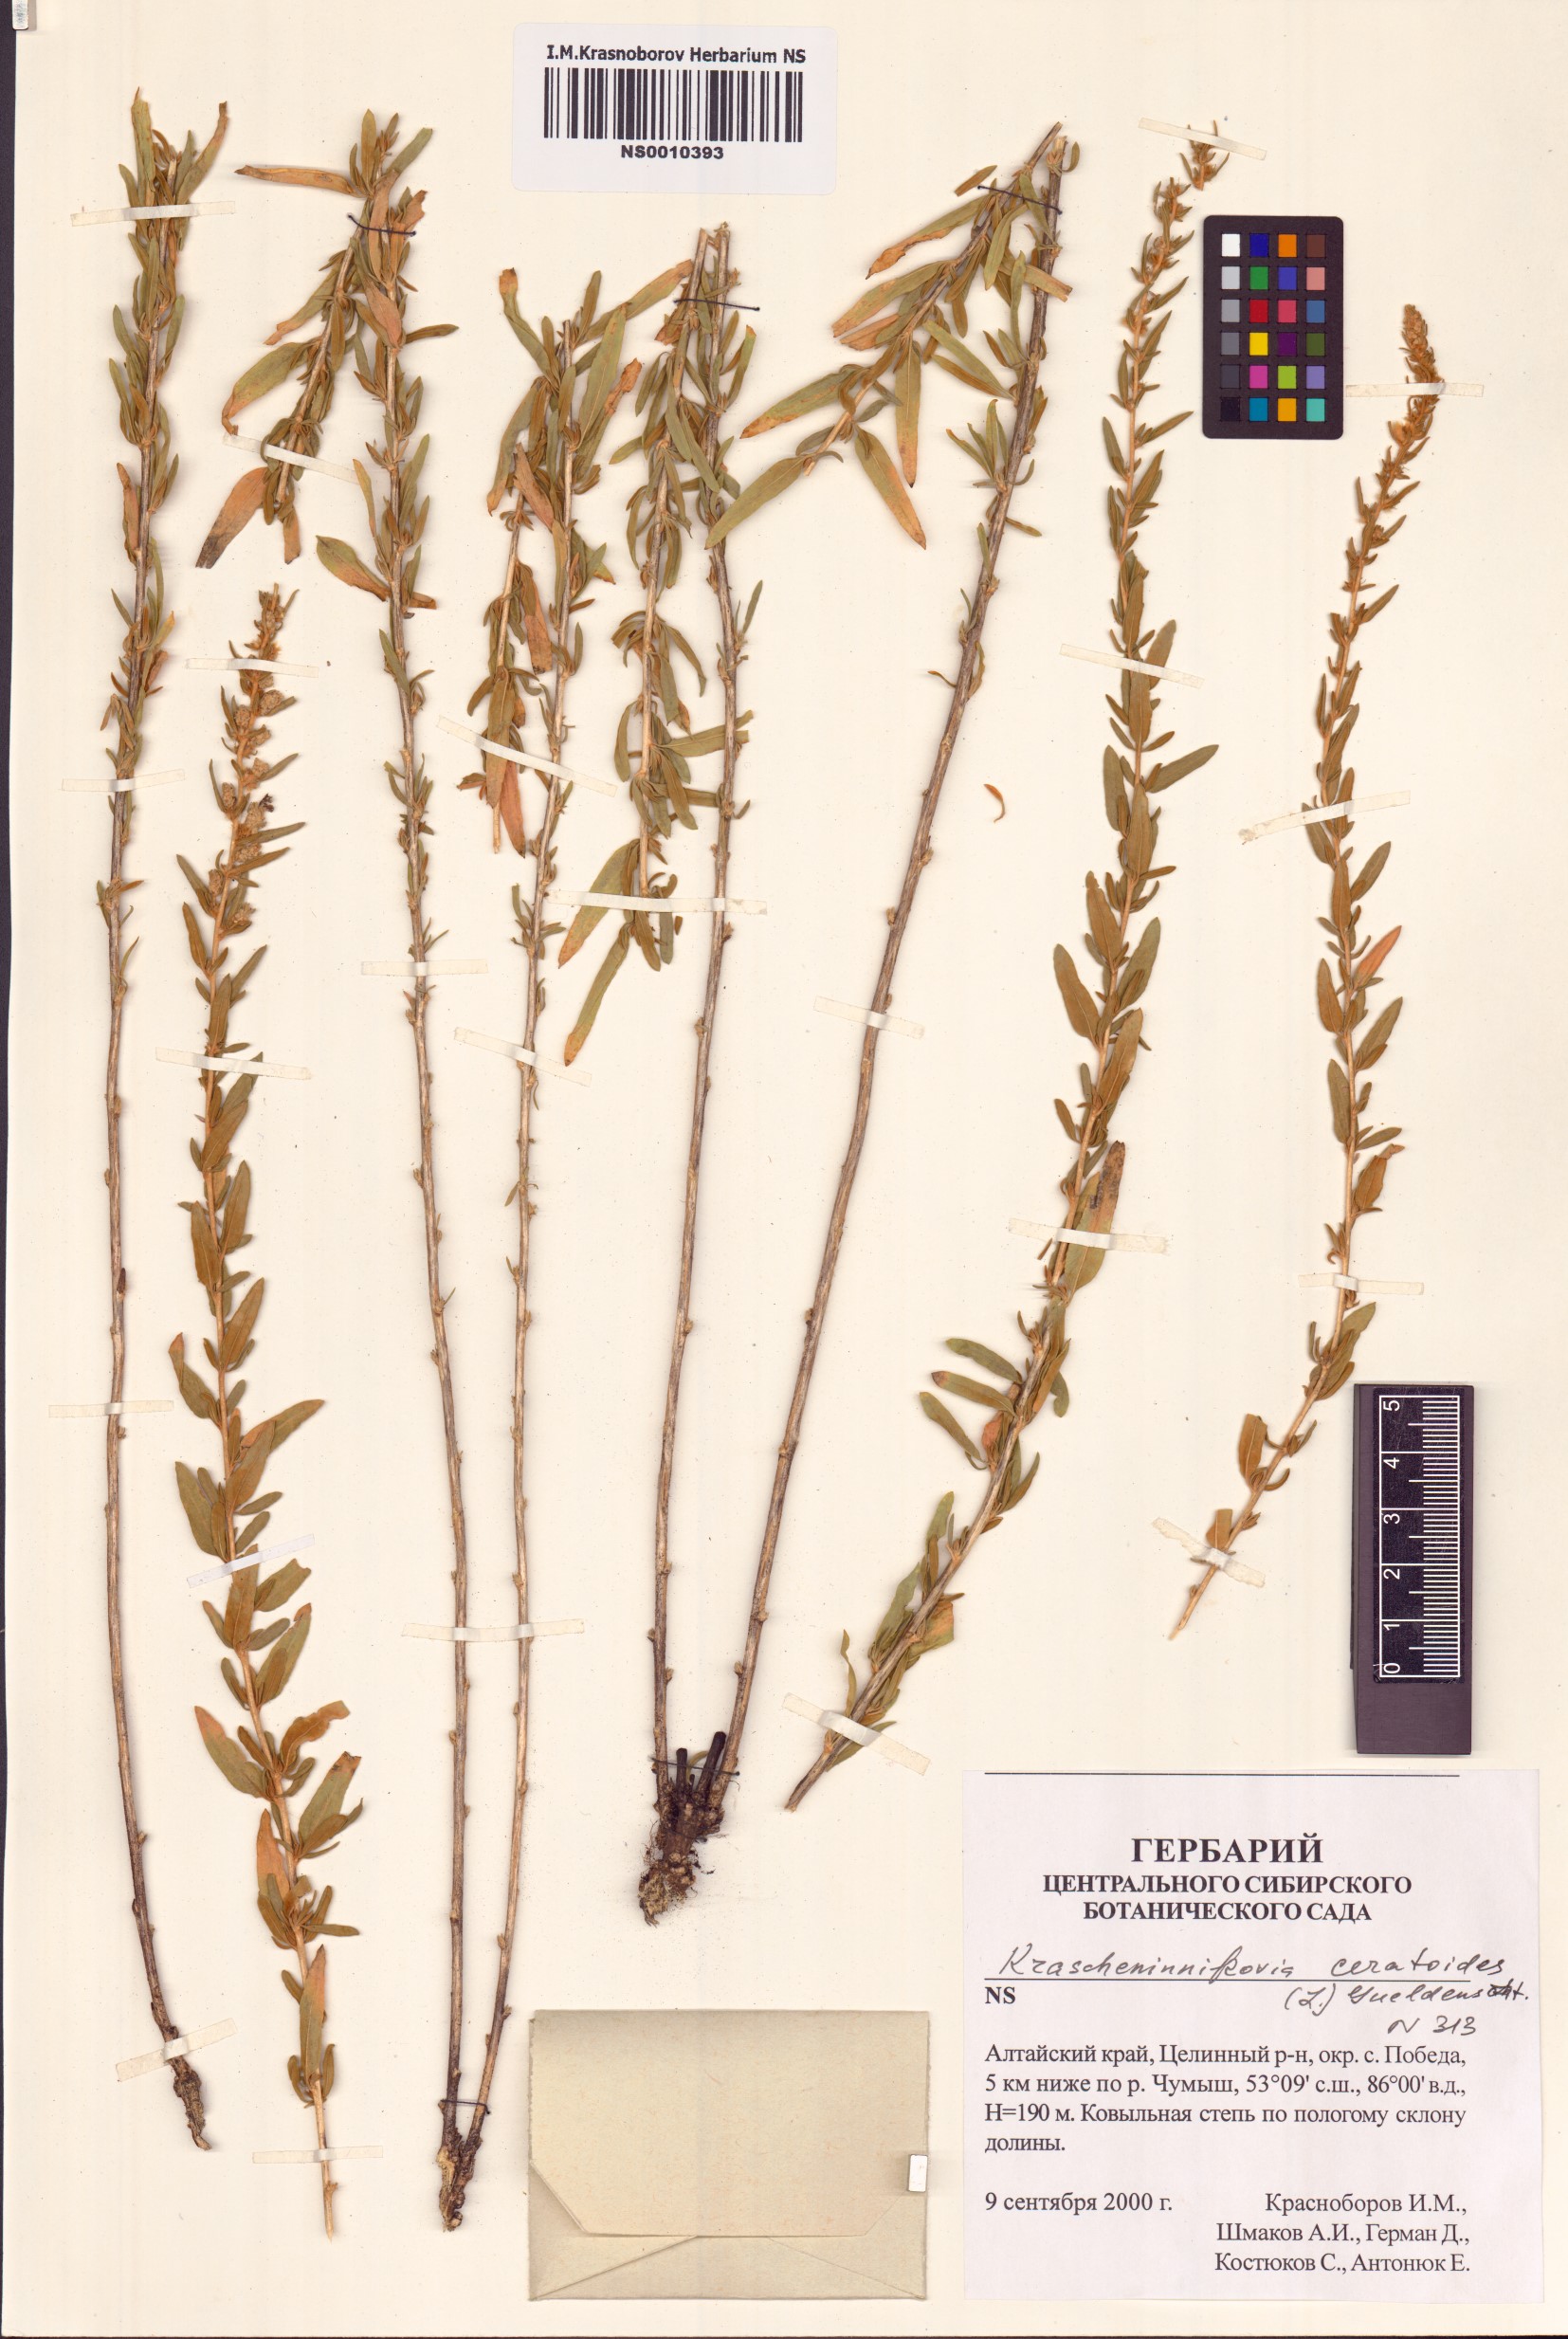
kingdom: Plantae
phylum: Tracheophyta
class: Magnoliopsida
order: Caryophyllales
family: Amaranthaceae
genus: Krascheninnikovia
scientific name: Krascheninnikovia ceratoides
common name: Pamirian winterfat
